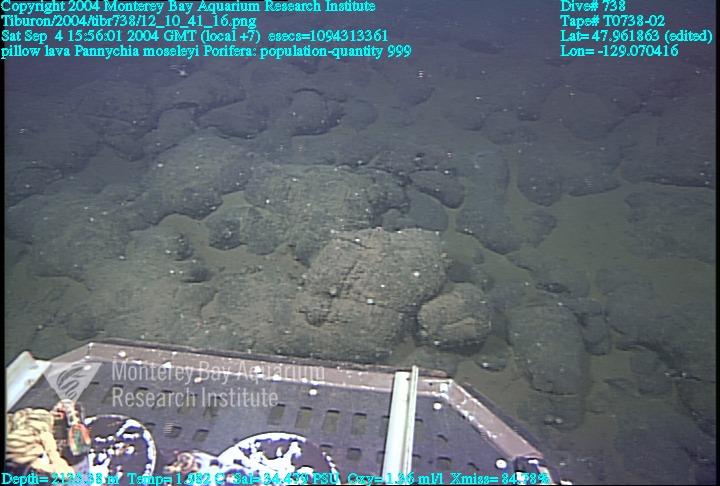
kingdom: Animalia
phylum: Porifera
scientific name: Porifera
